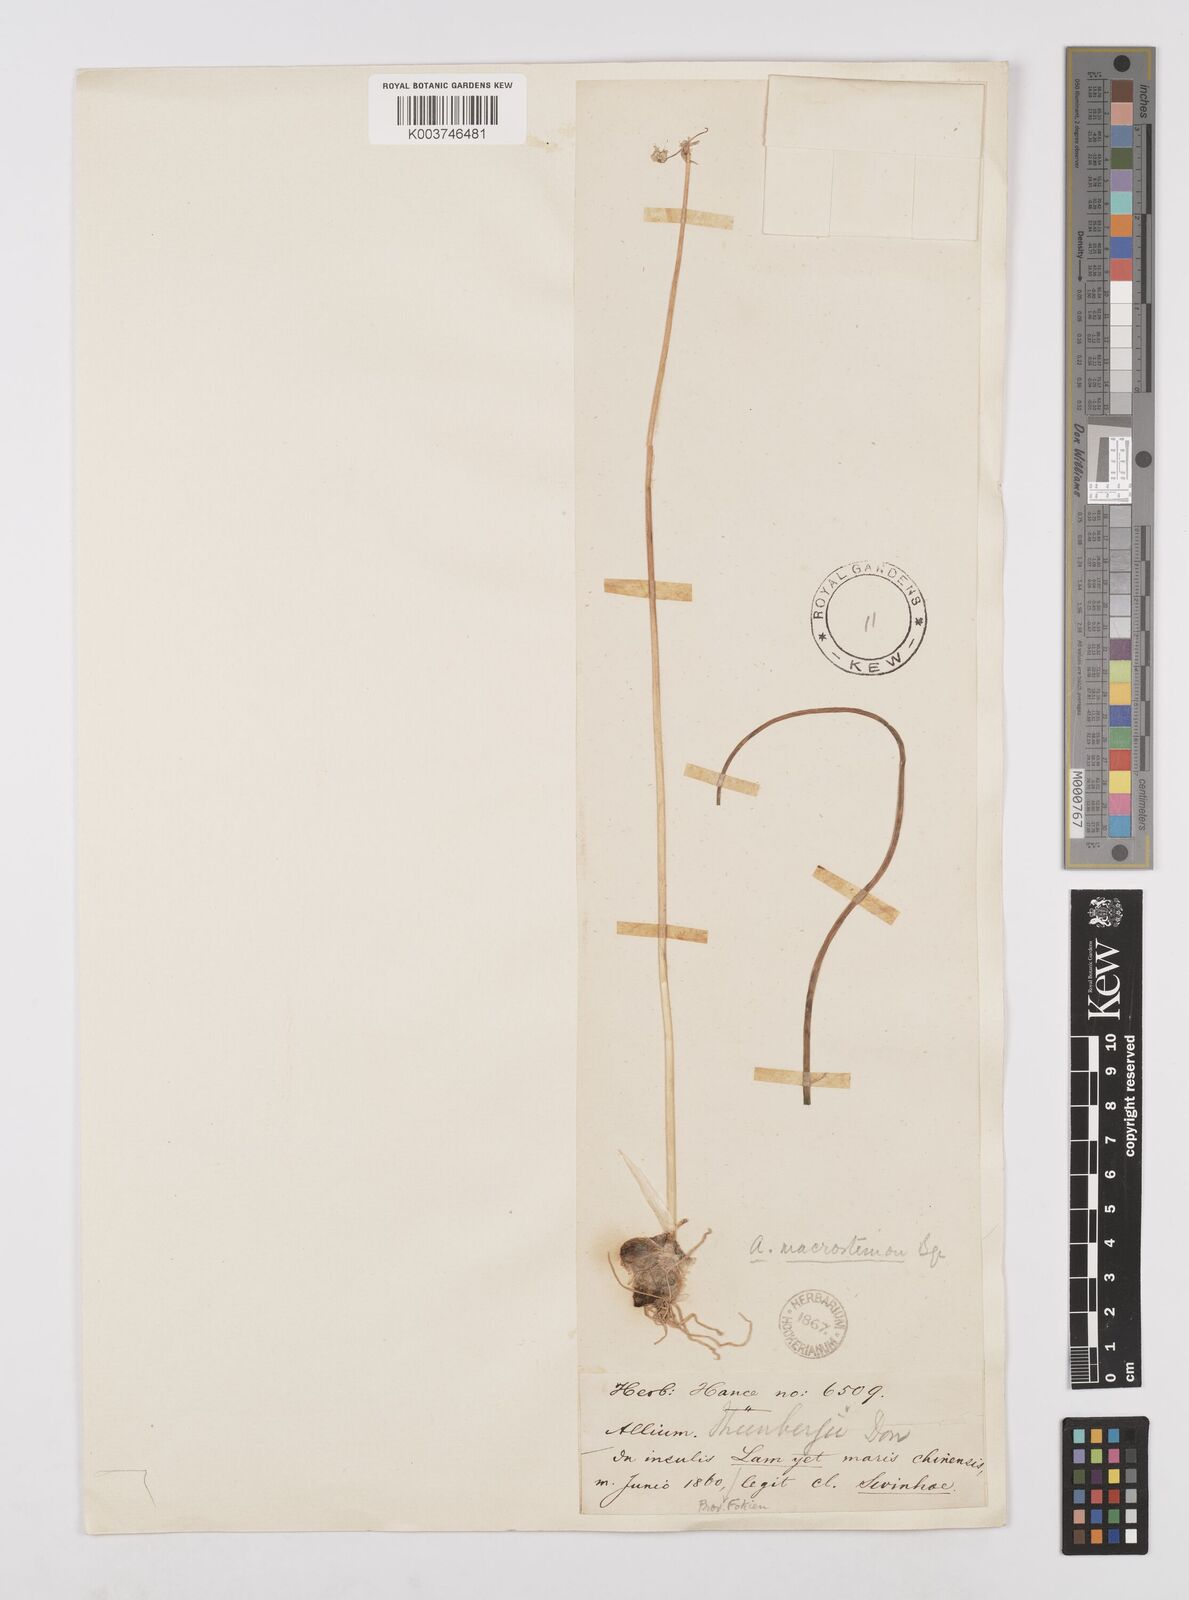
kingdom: Plantae
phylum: Tracheophyta
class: Liliopsida
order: Asparagales
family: Amaryllidaceae
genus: Allium
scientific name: Allium macrostemon
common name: Chinese garlic
